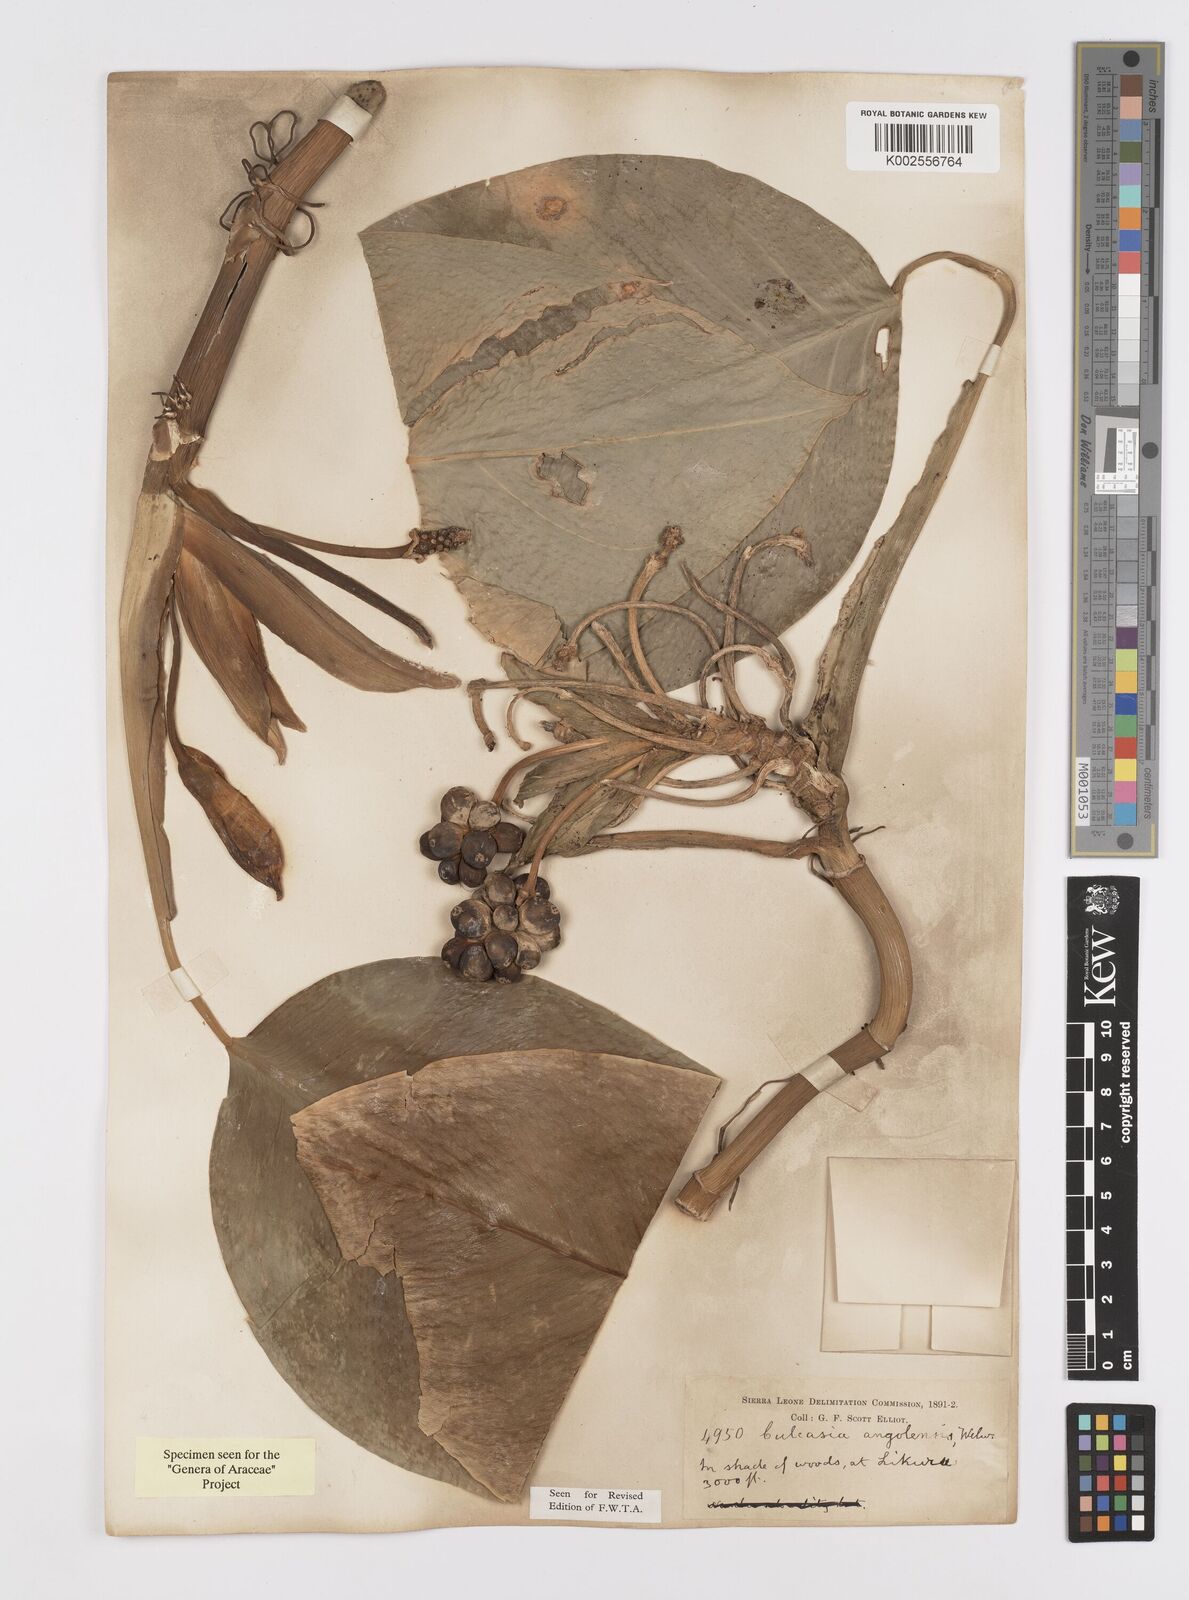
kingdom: Plantae
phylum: Tracheophyta
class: Liliopsida
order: Alismatales
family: Araceae
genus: Culcasia
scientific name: Culcasia angolensis
